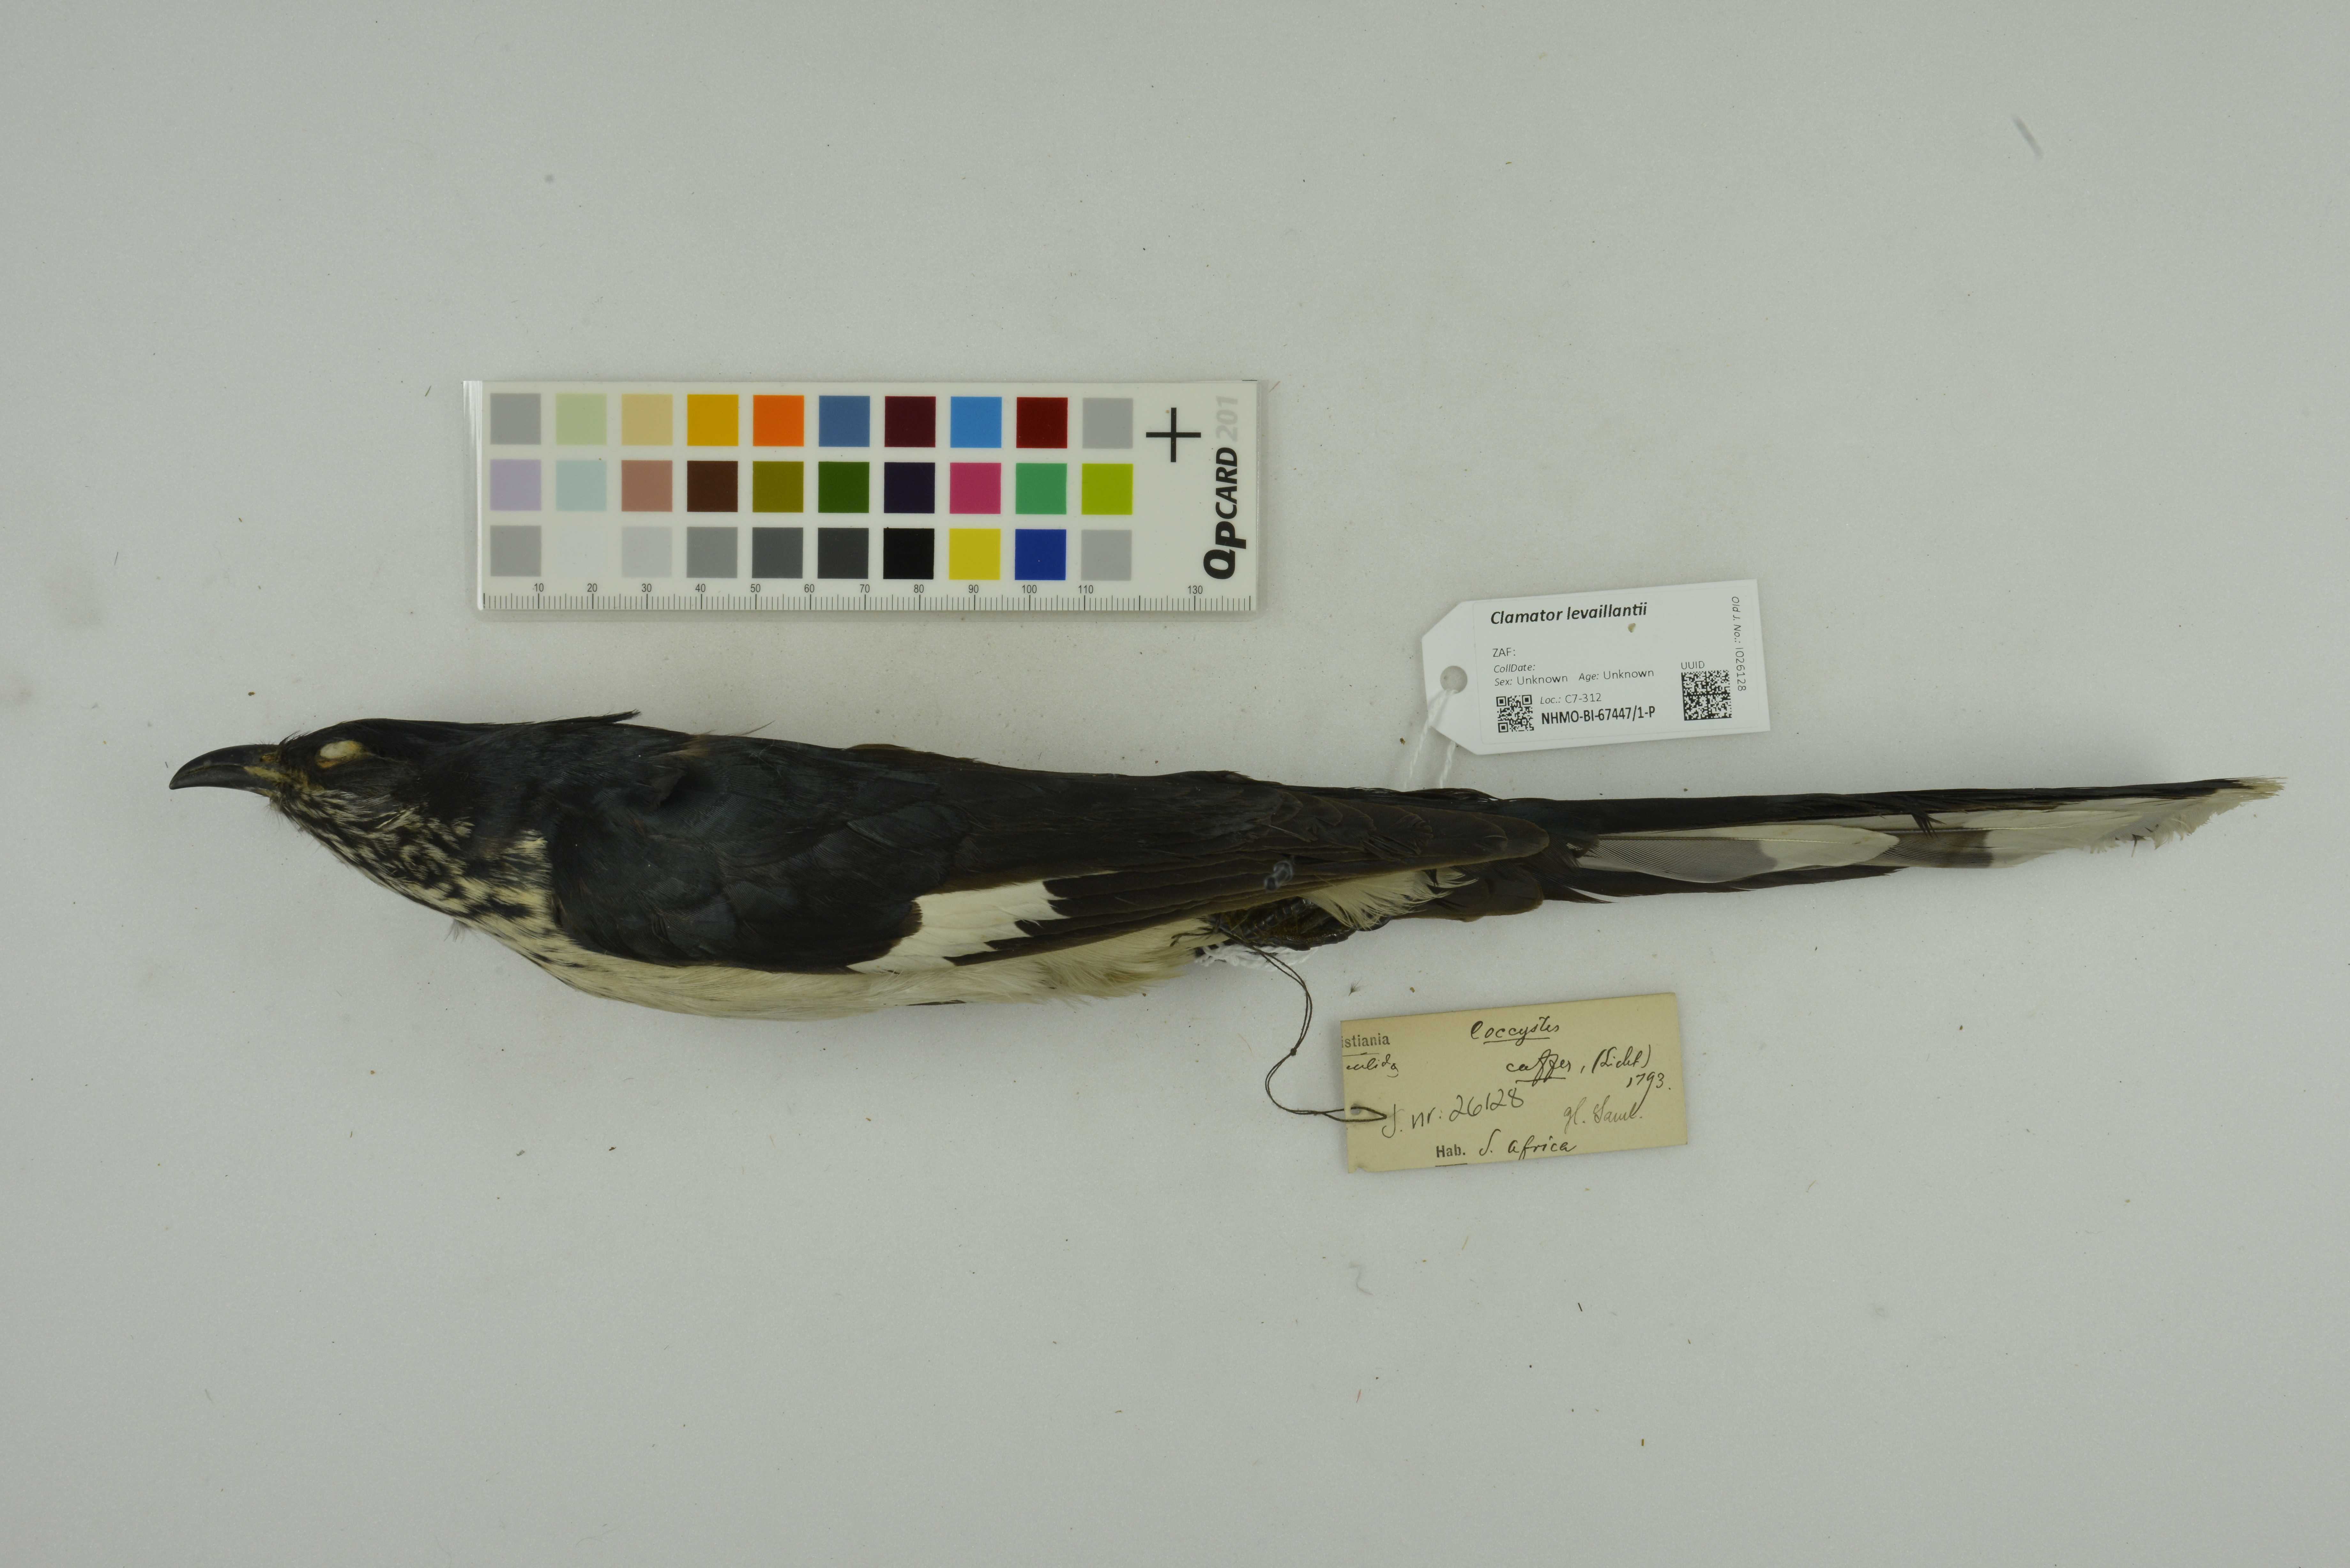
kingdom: Animalia
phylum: Chordata
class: Aves
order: Cuculiformes
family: Cuculidae
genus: Clamator
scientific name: Clamator levaillantii
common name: Levaillant's cuckoo
